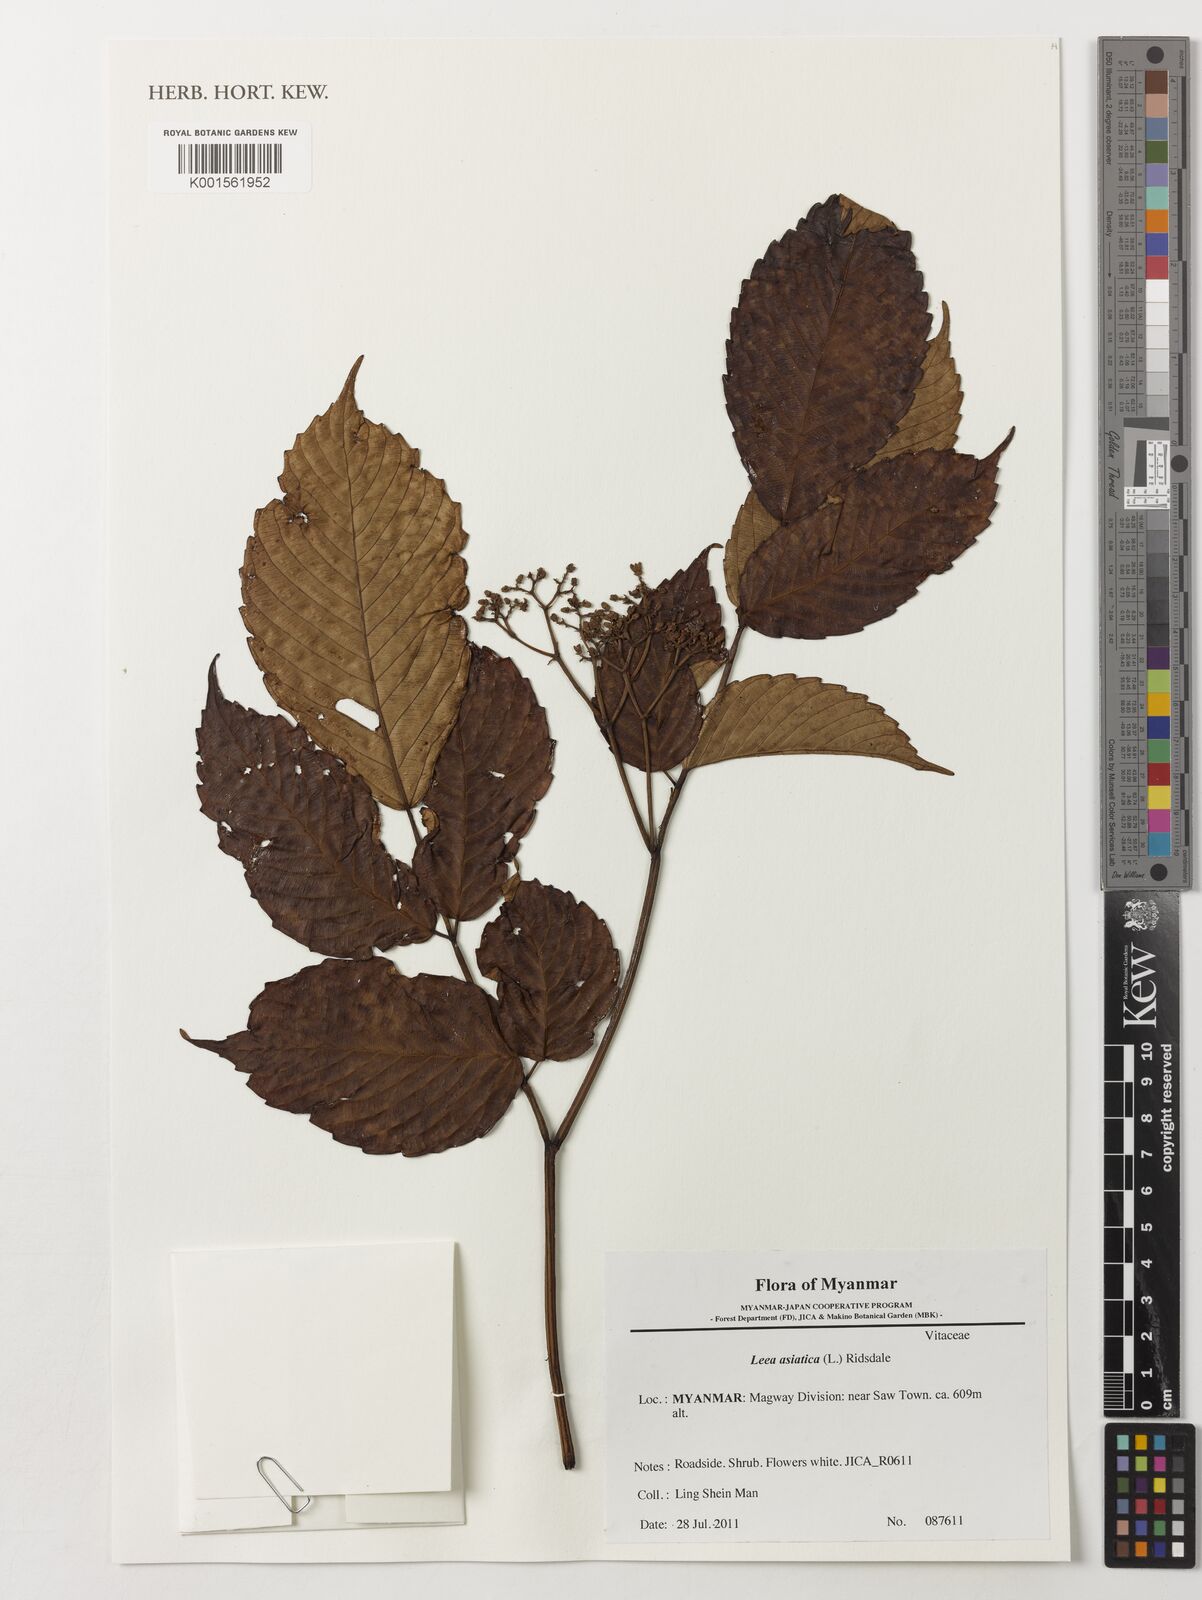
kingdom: Plantae
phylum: Tracheophyta
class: Magnoliopsida
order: Vitales
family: Vitaceae
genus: Leea
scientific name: Leea asiatica
